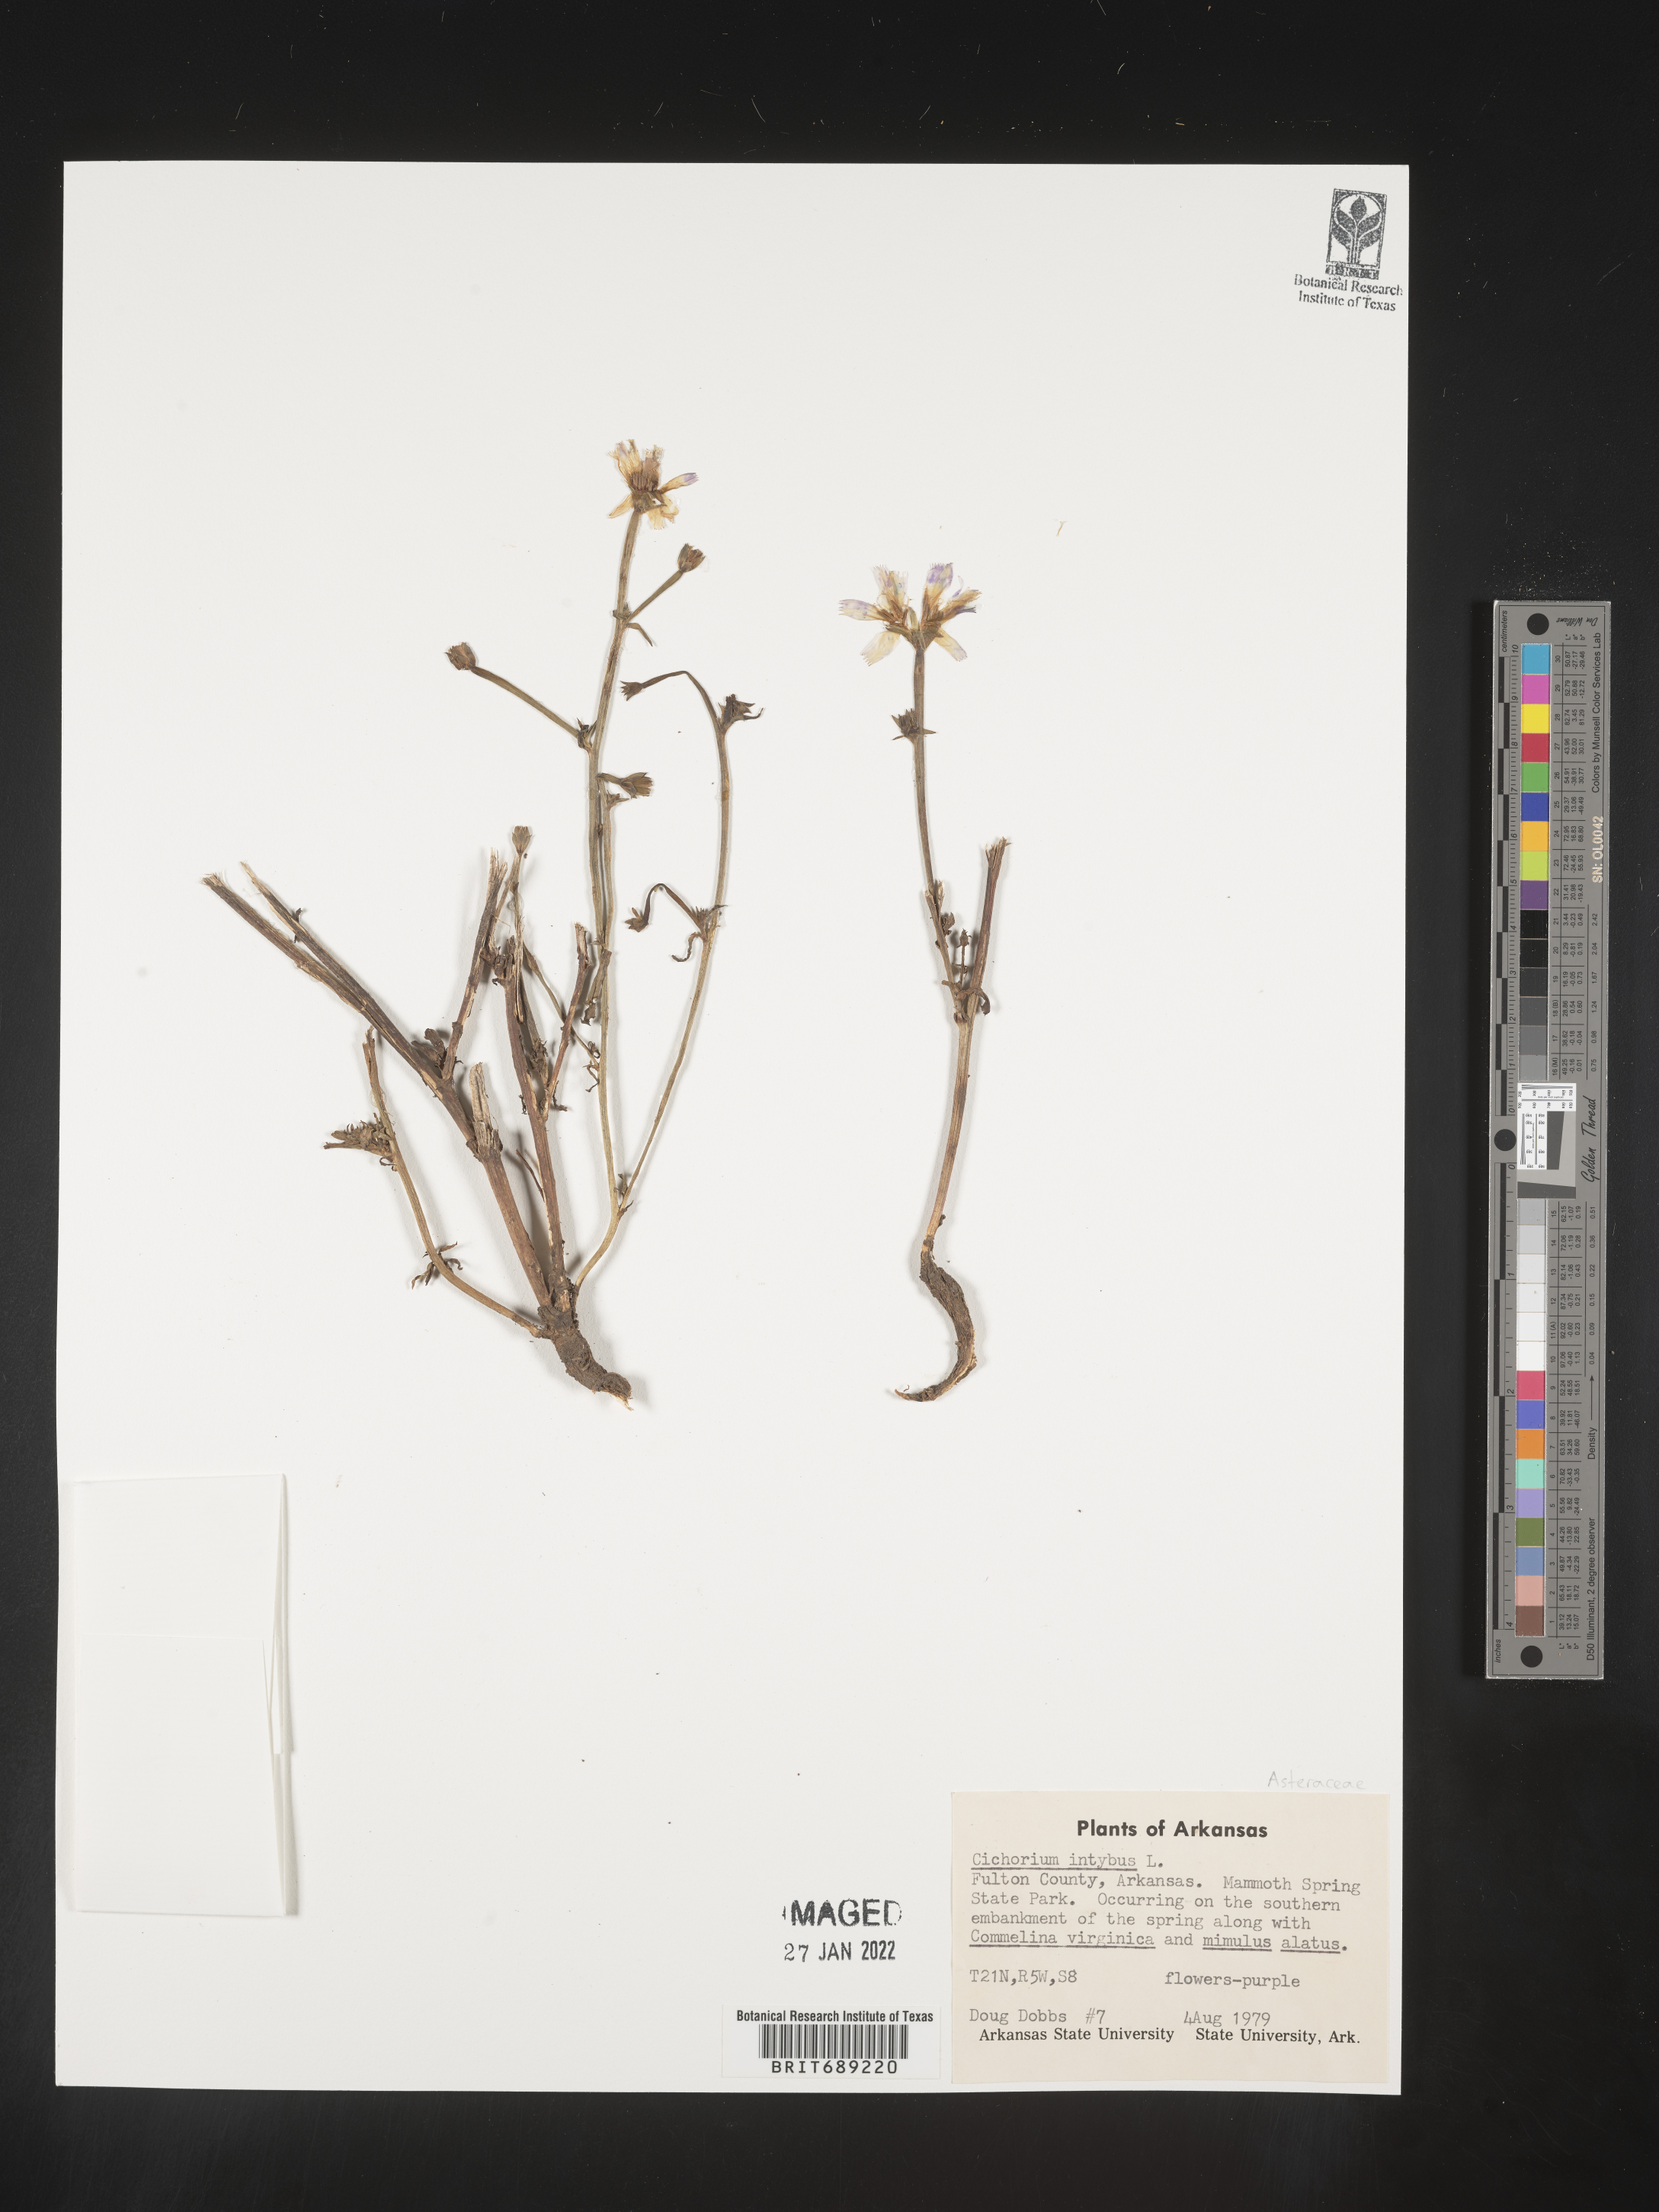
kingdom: Plantae
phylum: Tracheophyta
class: Magnoliopsida
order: Asterales
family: Asteraceae
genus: Cichorium
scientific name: Cichorium intybus
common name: Chicory
